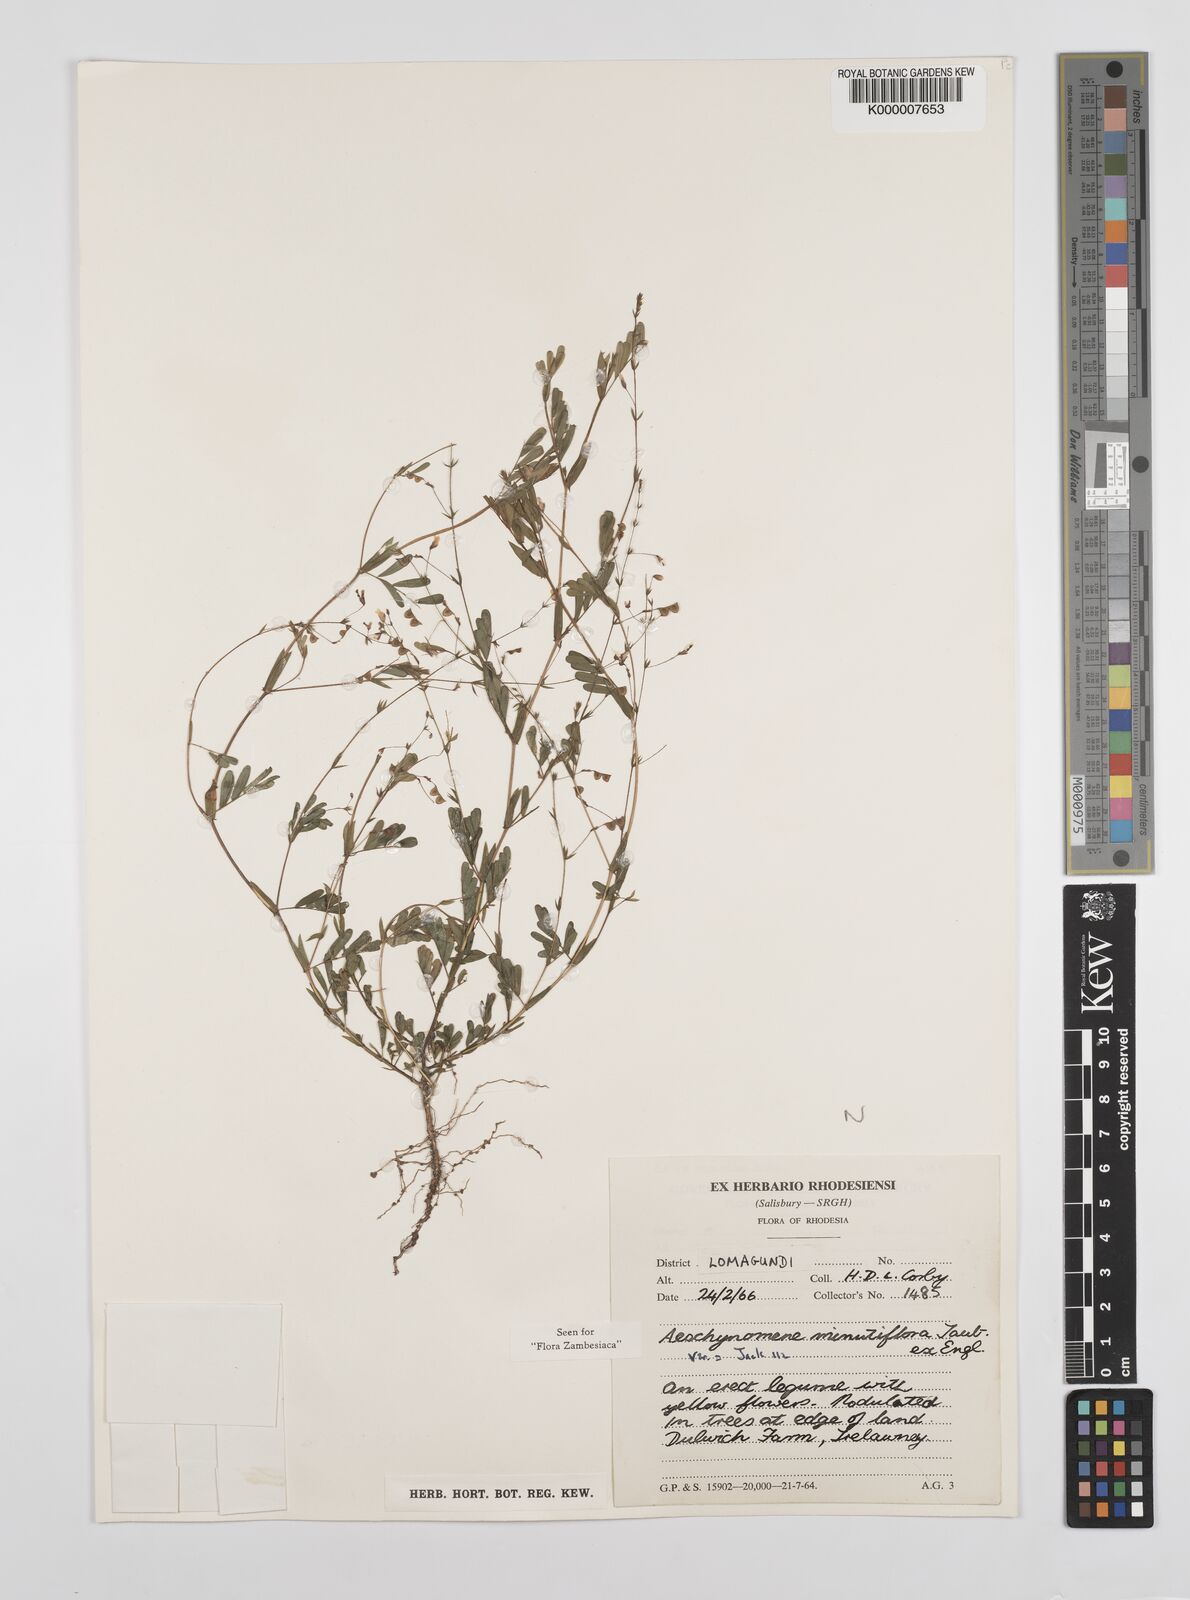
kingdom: Plantae
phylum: Tracheophyta
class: Magnoliopsida
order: Fabales
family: Fabaceae
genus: Aeschynomene
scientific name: Aeschynomene minutiflora
